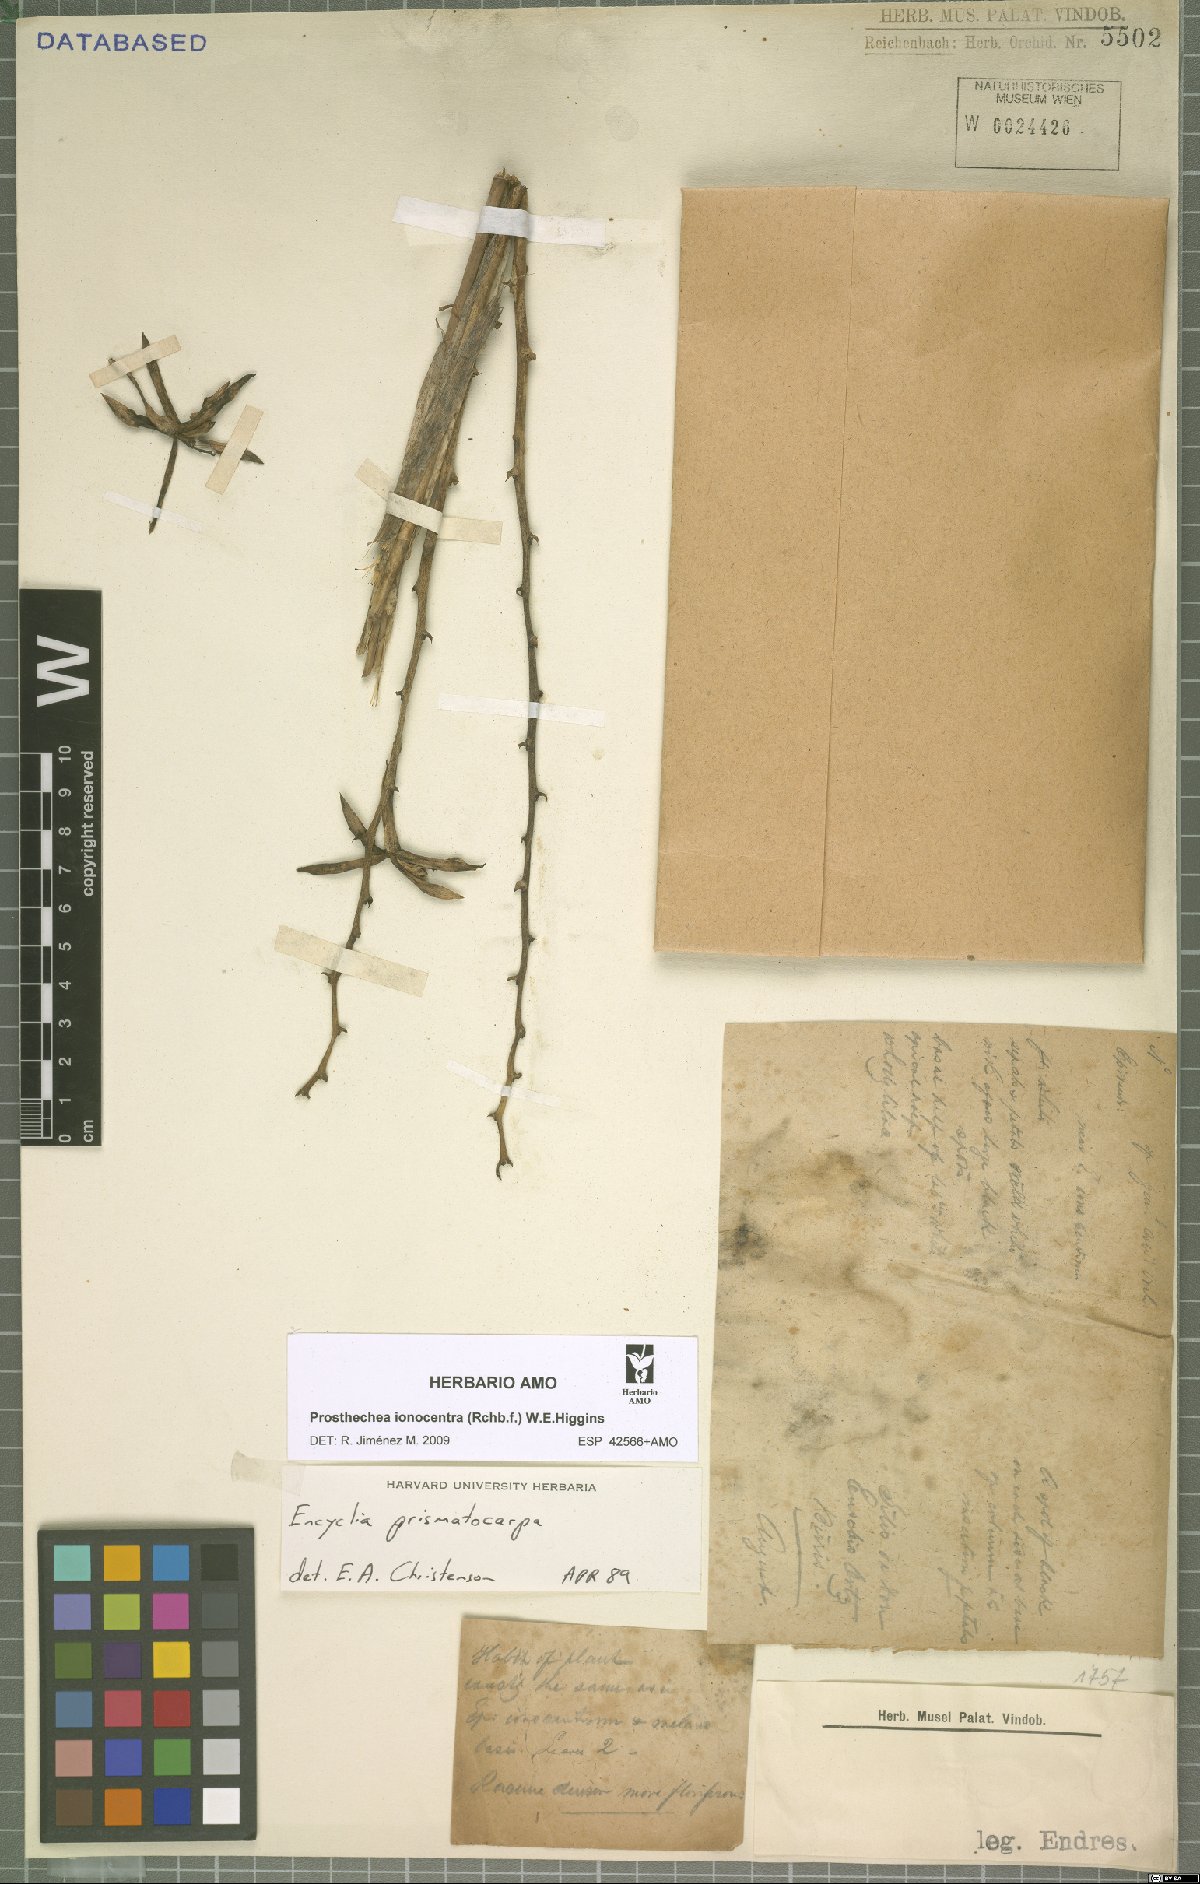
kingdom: Plantae
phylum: Tracheophyta
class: Liliopsida
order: Asparagales
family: Orchidaceae
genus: Prosthechea
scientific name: Prosthechea ionocentra
